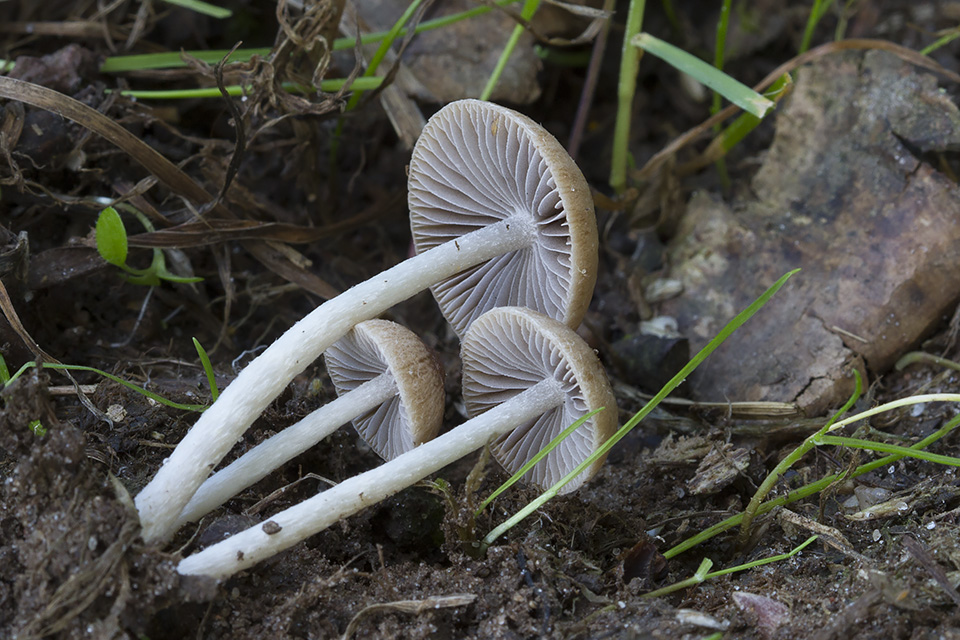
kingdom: Fungi
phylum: Basidiomycota
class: Agaricomycetes
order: Agaricales
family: Psathyrellaceae
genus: Psathyrella
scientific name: Psathyrella
